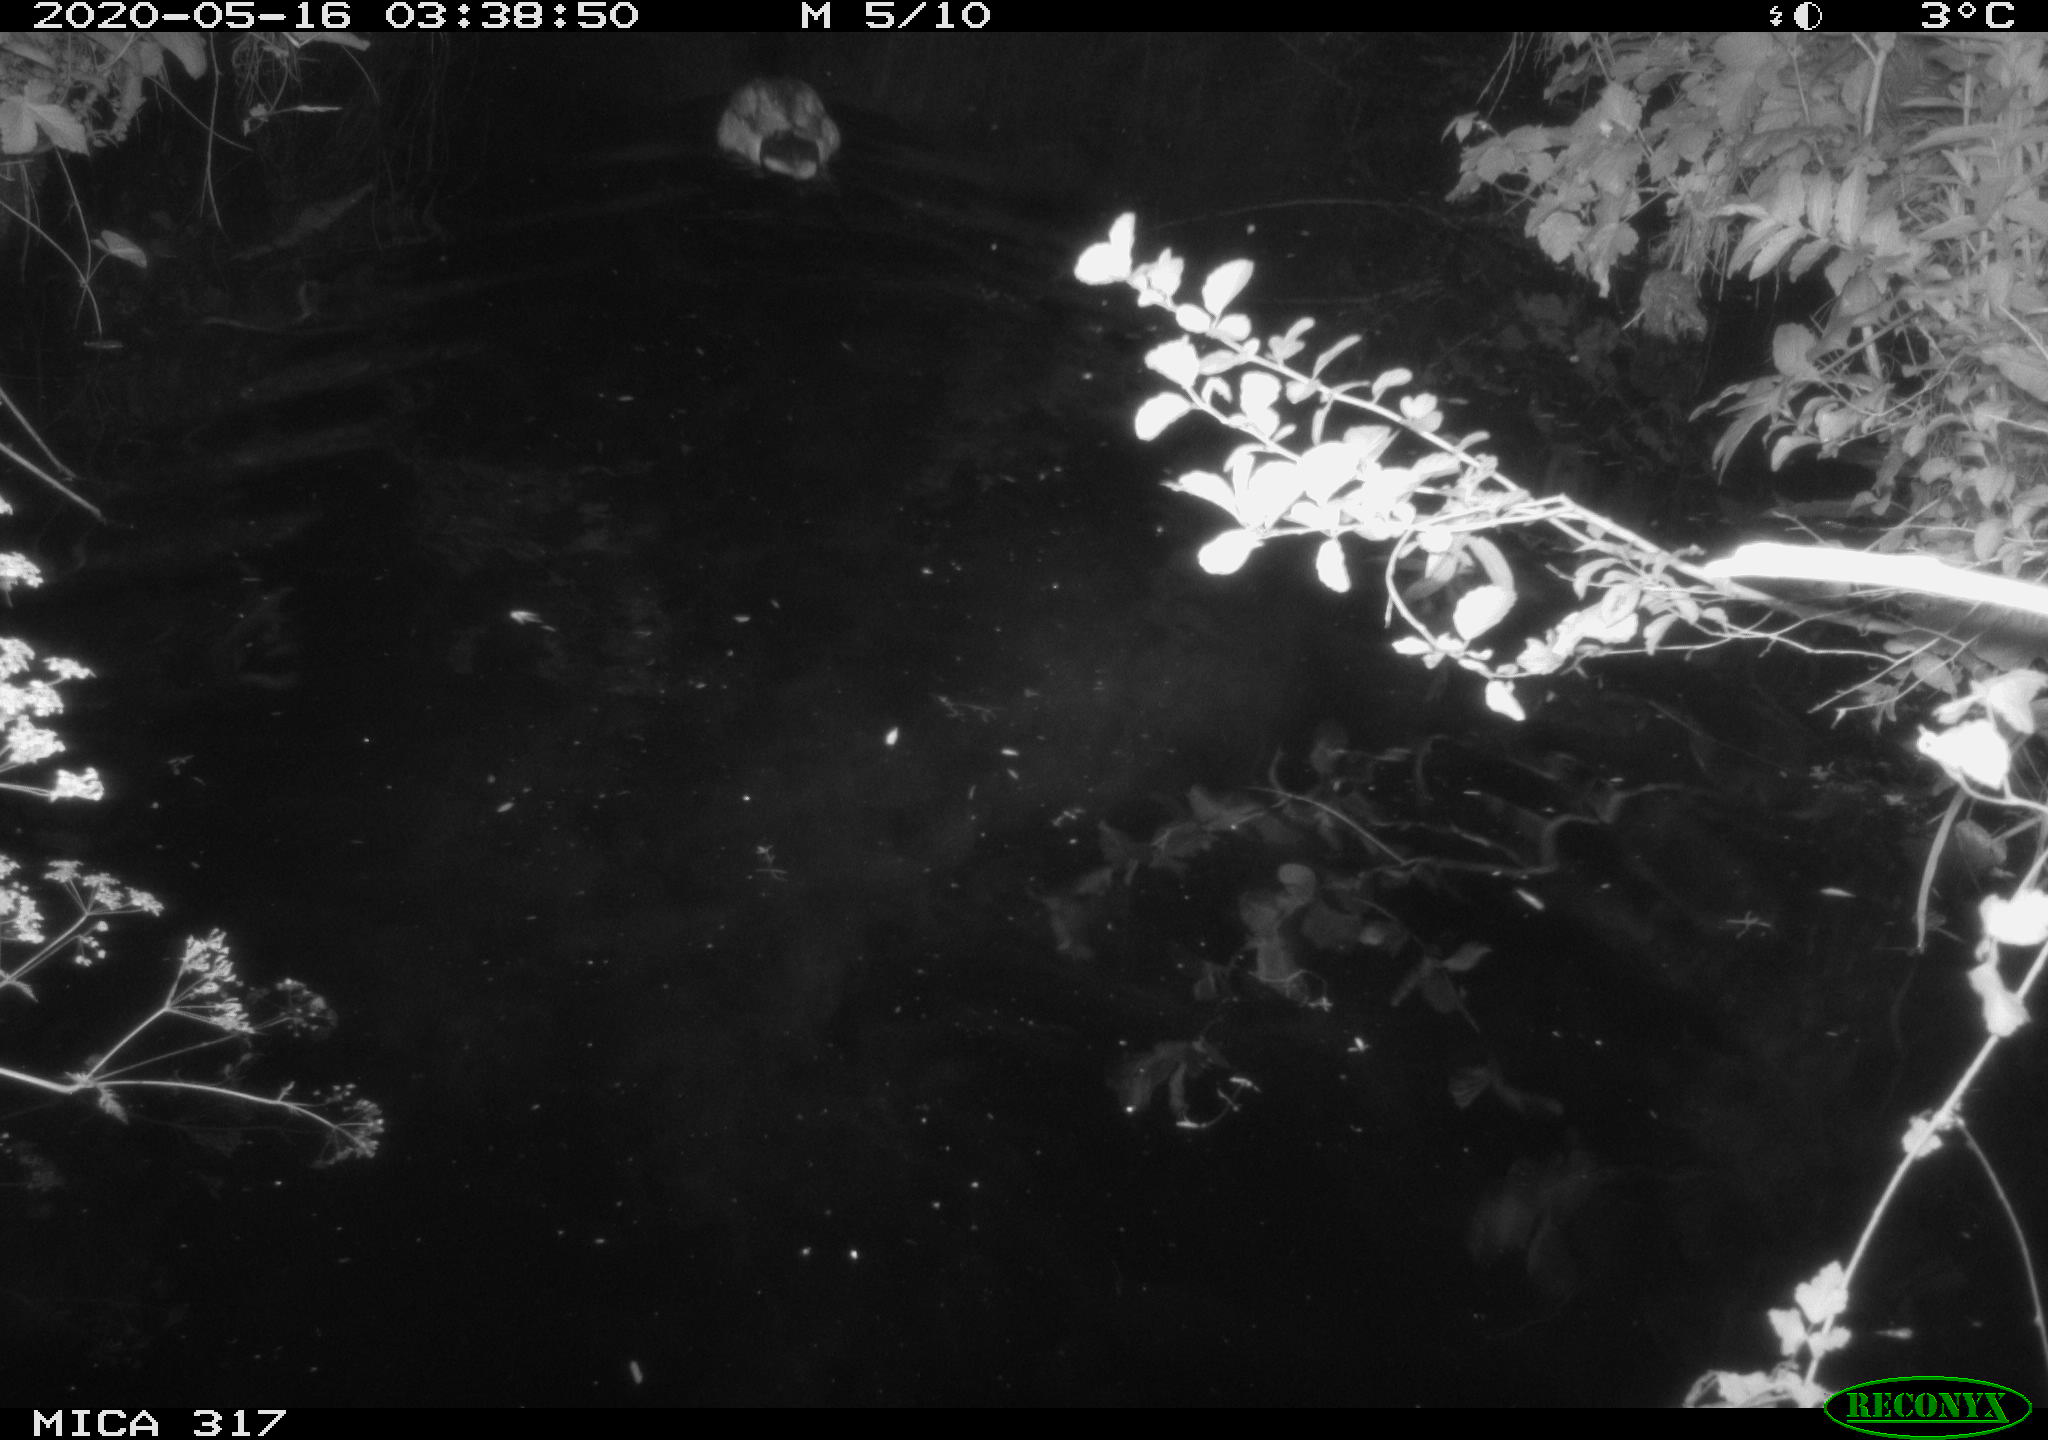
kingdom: Animalia
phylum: Chordata
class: Aves
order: Anseriformes
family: Anatidae
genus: Anas
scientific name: Anas platyrhynchos
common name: Mallard
